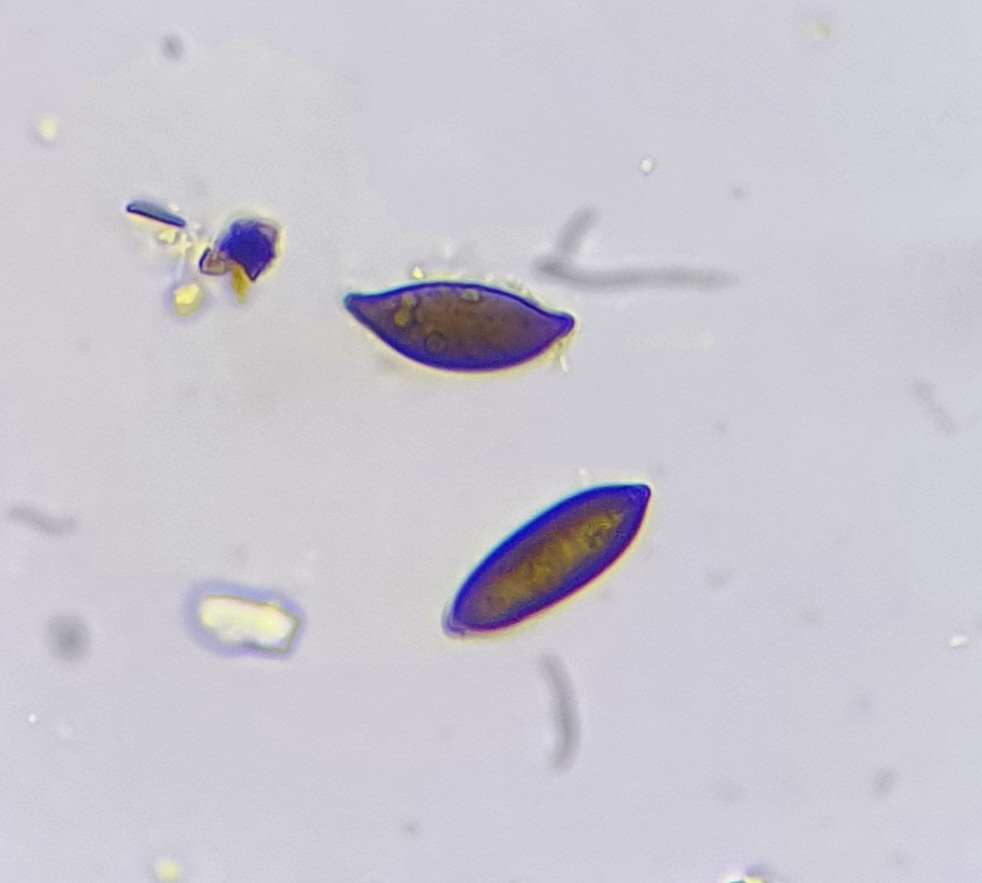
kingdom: Fungi
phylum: Ascomycota
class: Sordariomycetes
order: Amphisphaeriales
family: Amphisphaeriaceae
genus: Amphisphaerella
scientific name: Amphisphaerella mycophila
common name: ædelgran-kulkaviar
